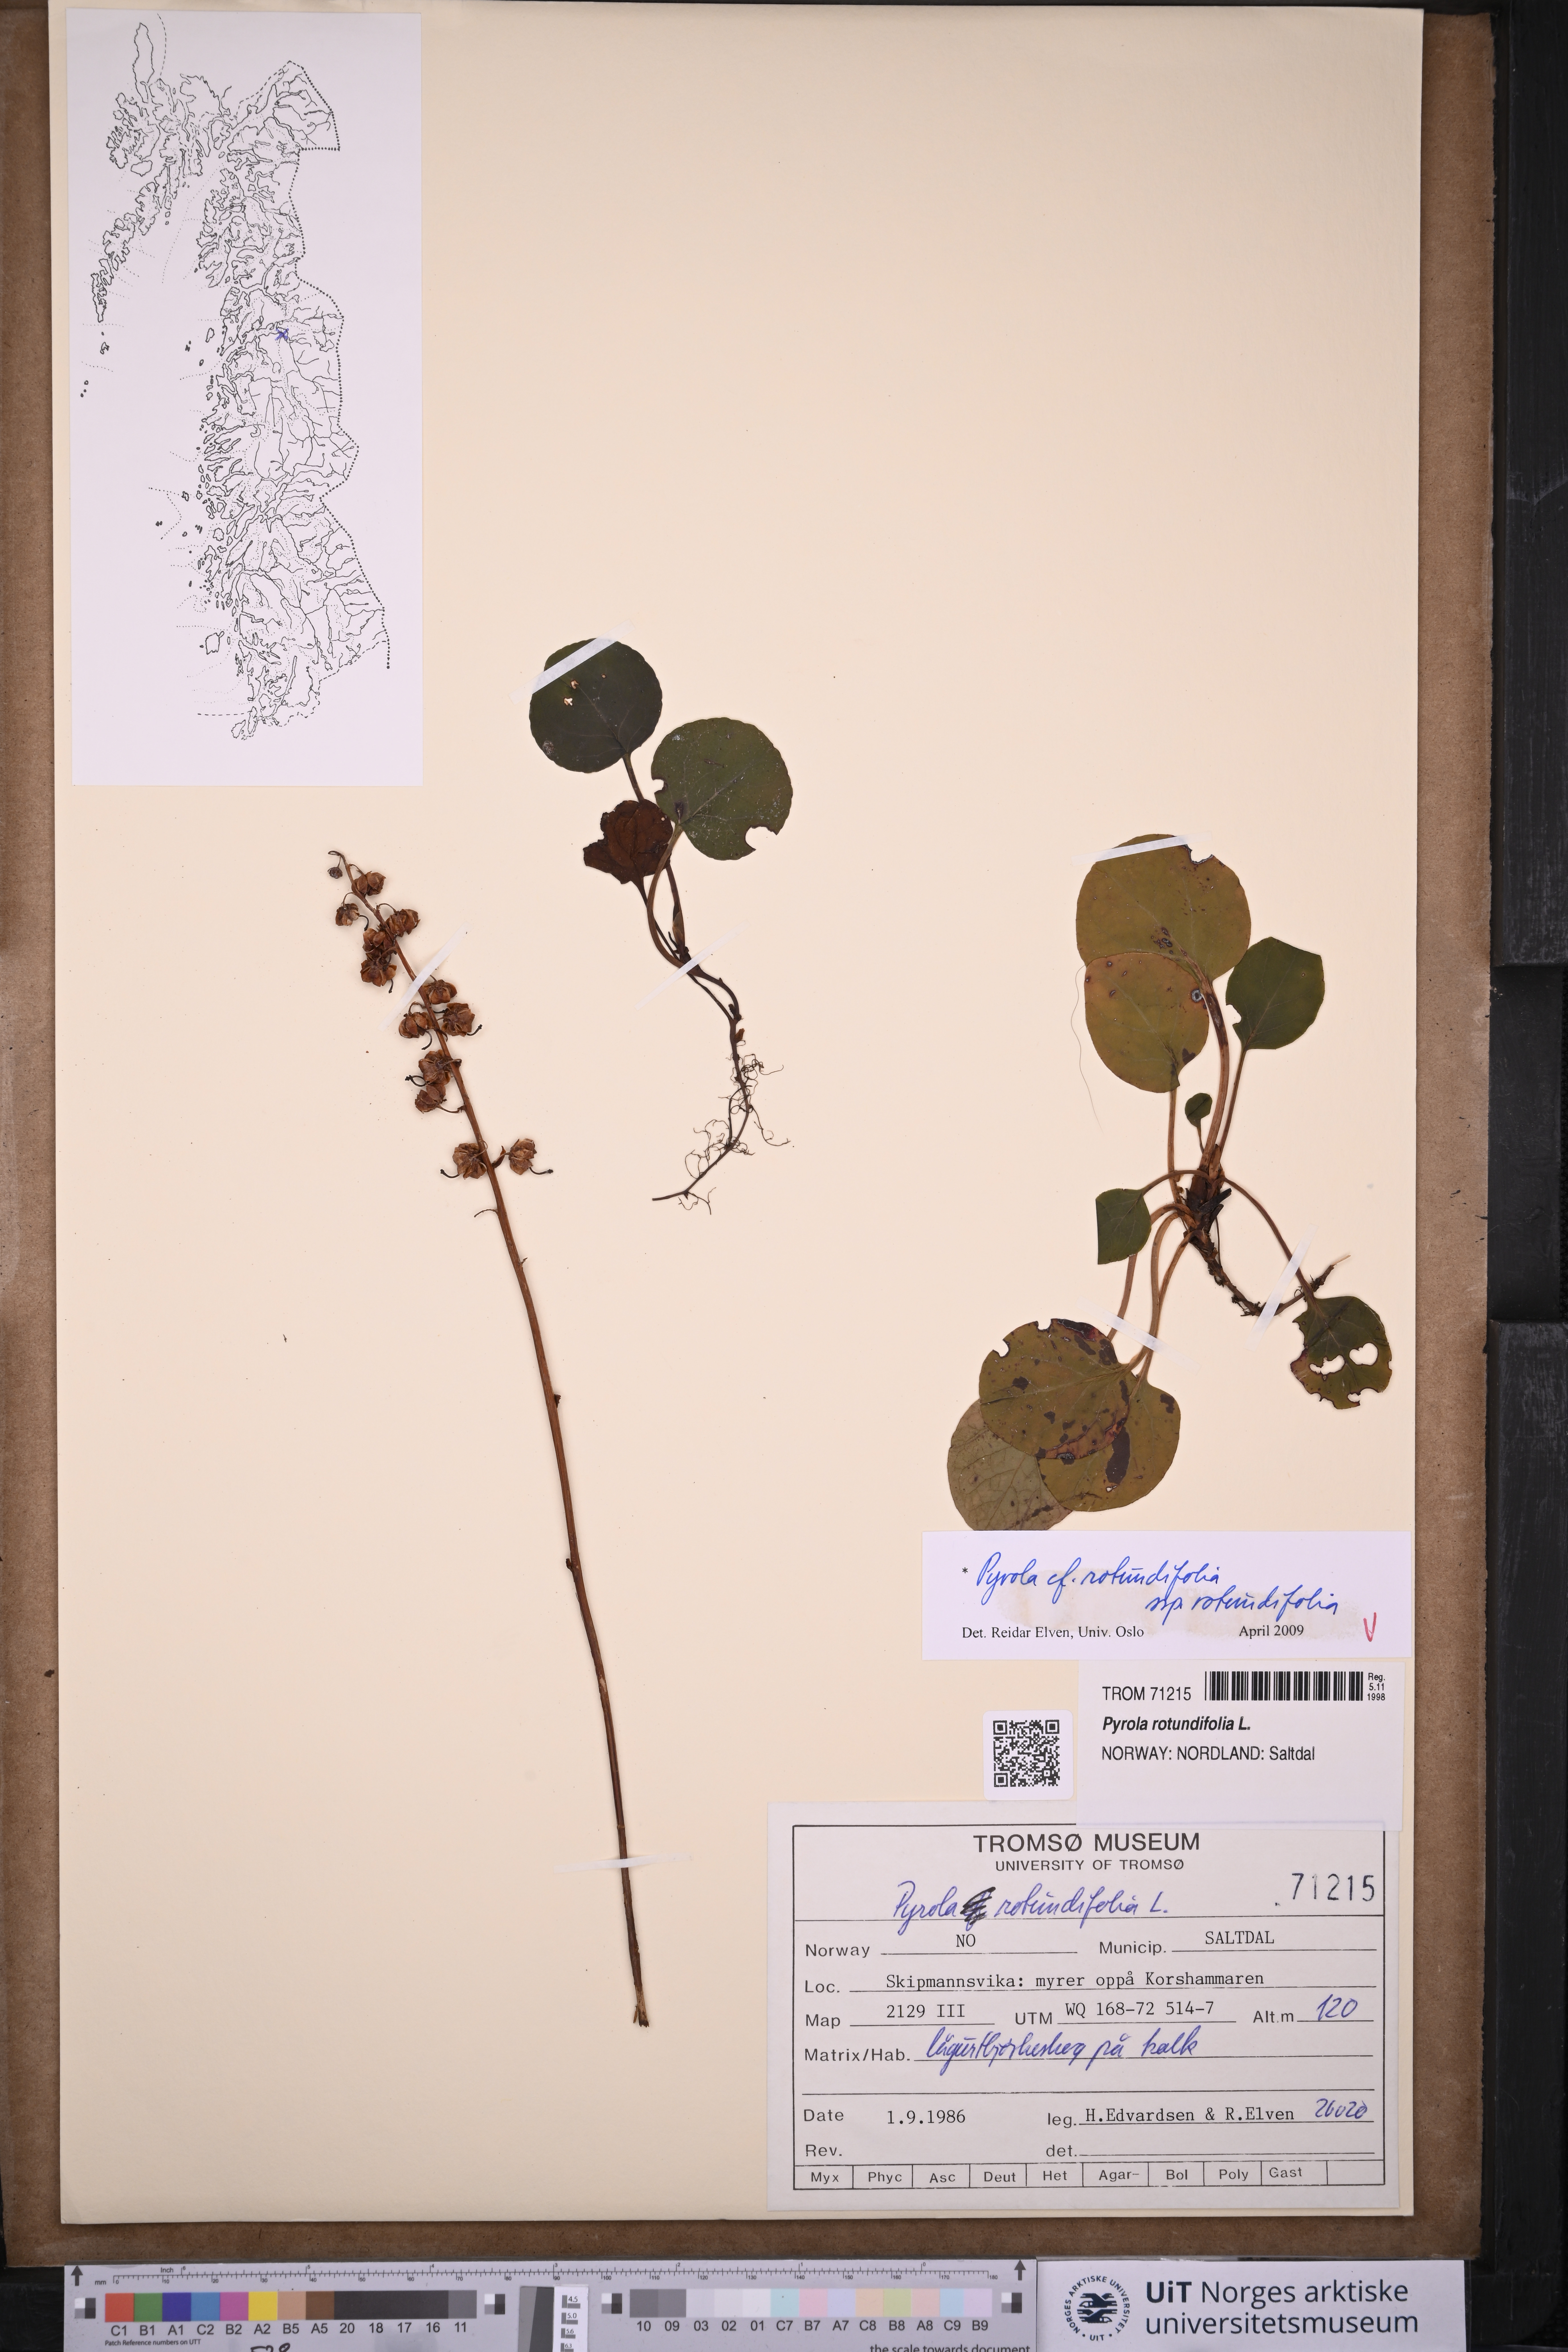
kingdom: Plantae
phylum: Tracheophyta
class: Magnoliopsida
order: Ericales
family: Ericaceae
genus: Pyrola
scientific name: Pyrola rotundifolia
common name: Round-leaved wintergreen
